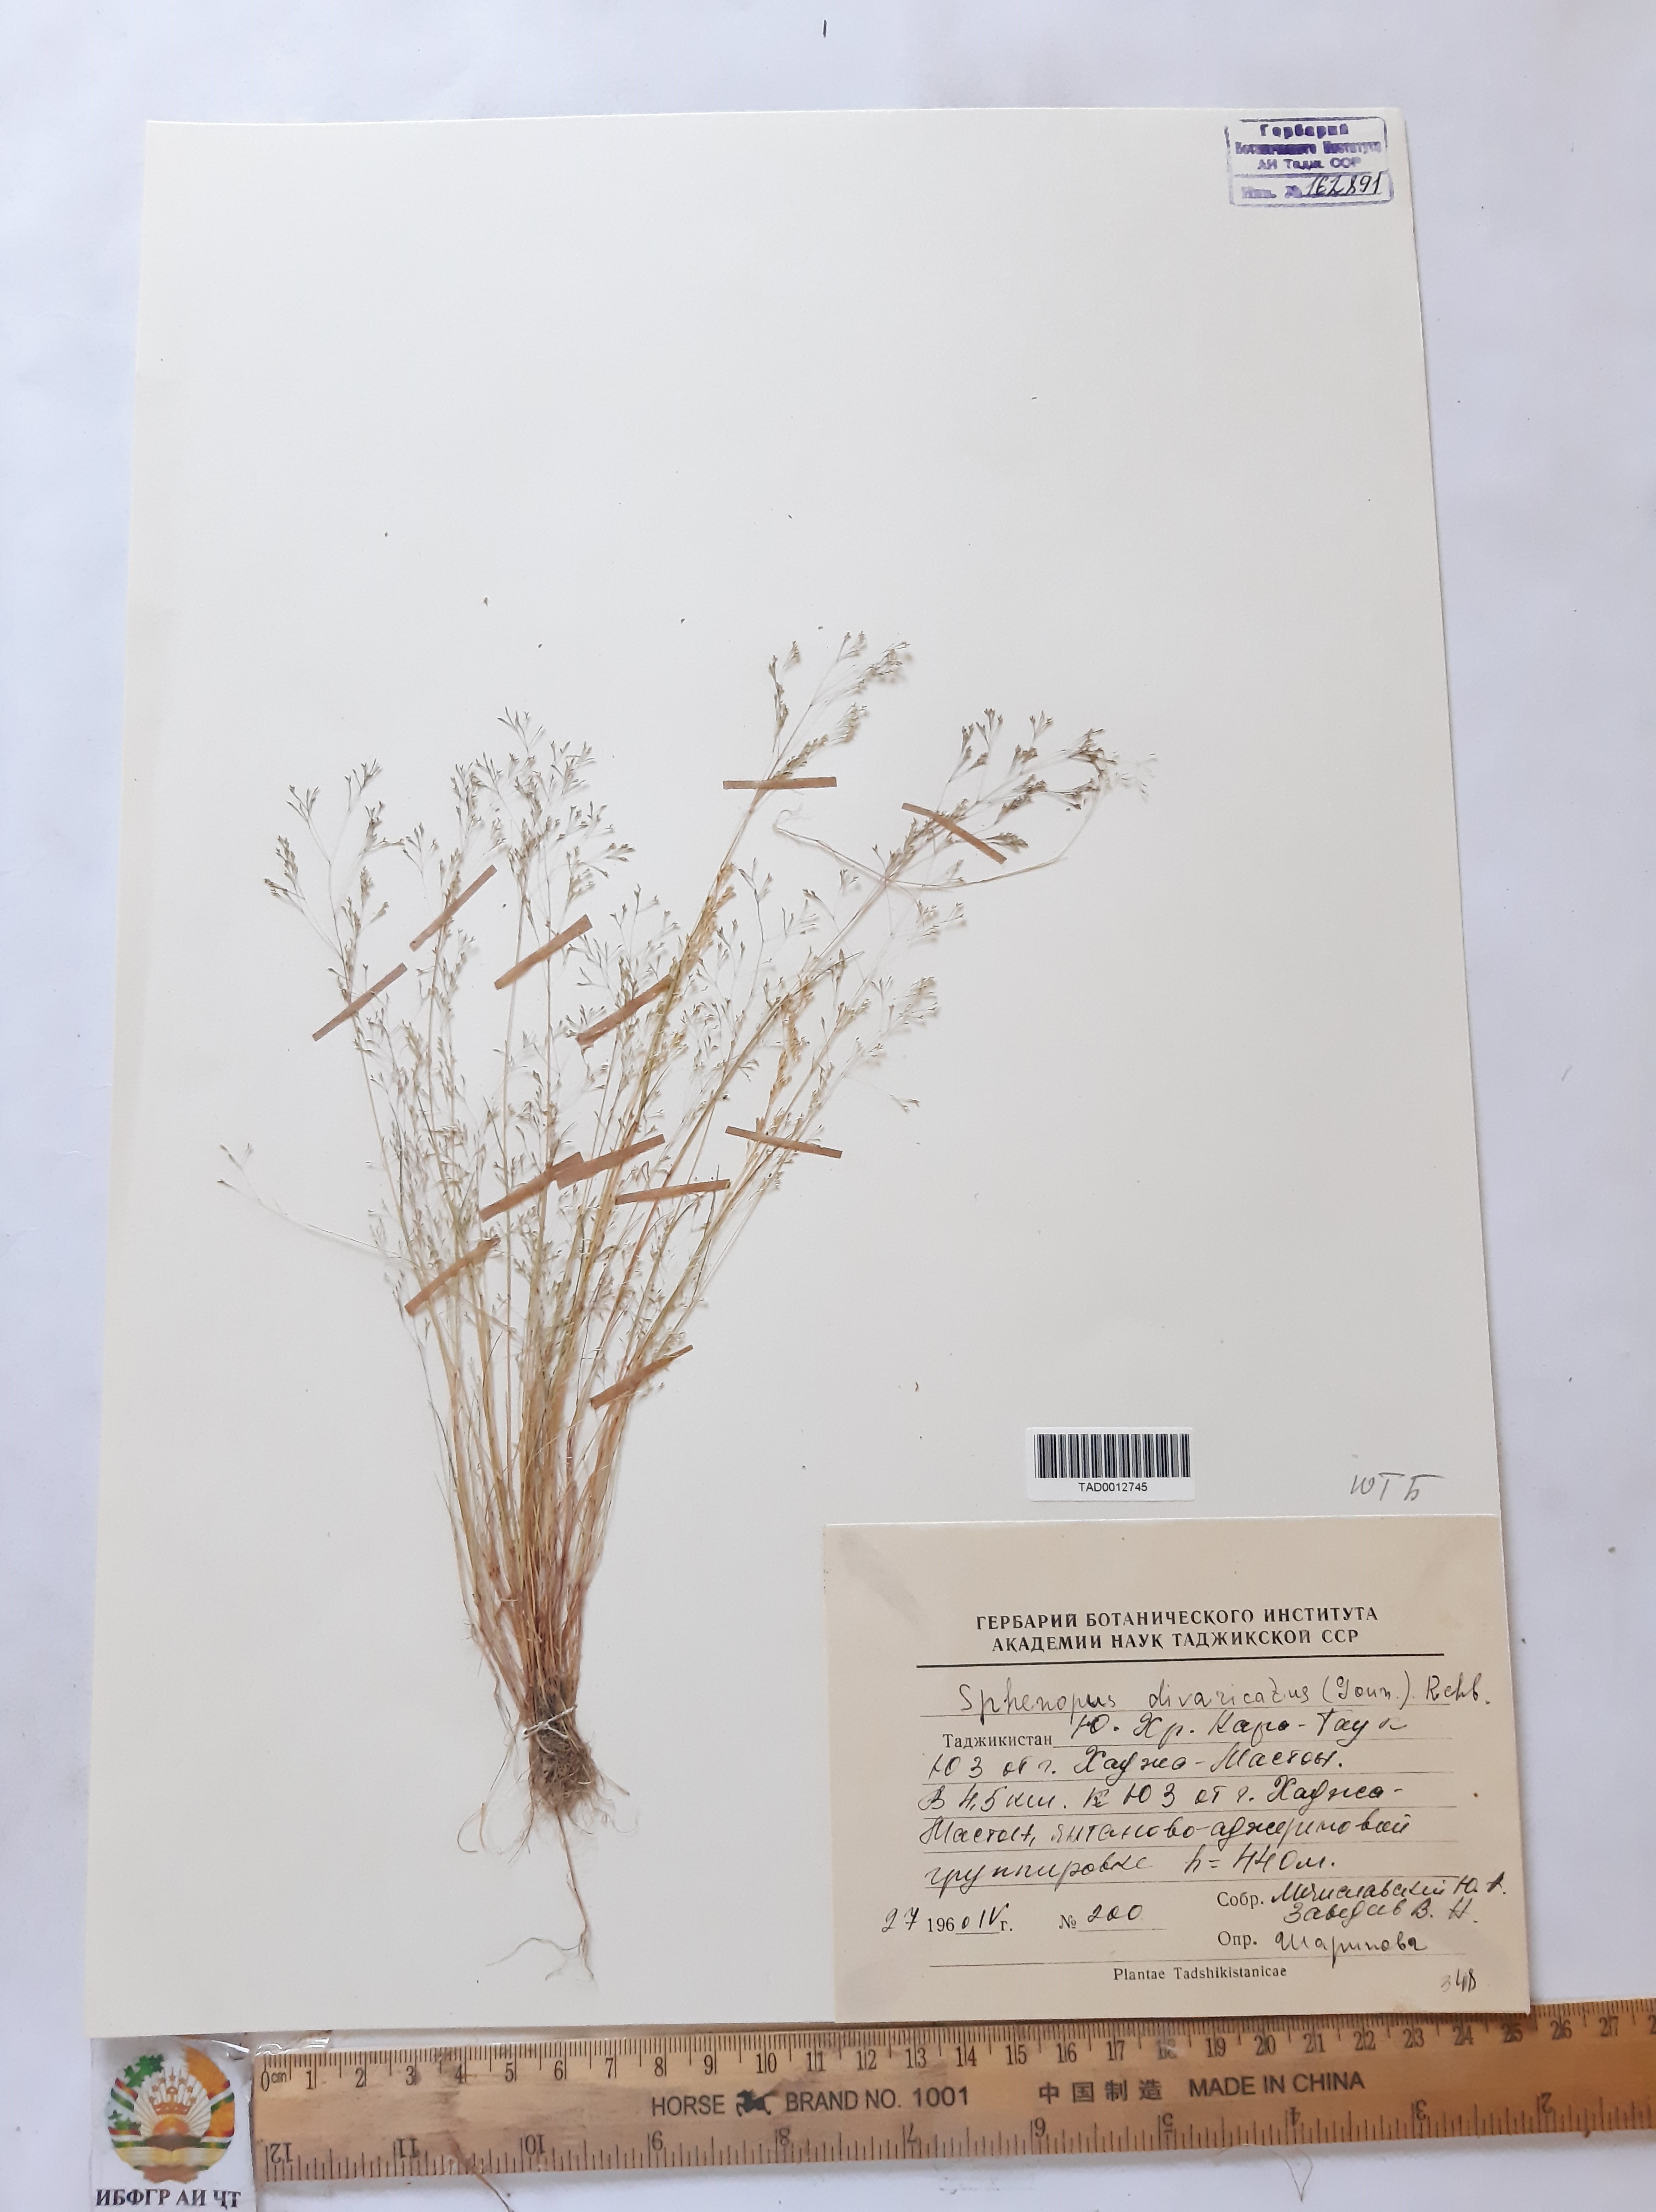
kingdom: Plantae
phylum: Tracheophyta
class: Liliopsida
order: Poales
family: Poaceae
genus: Cutandia
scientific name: Cutandia memphitica
